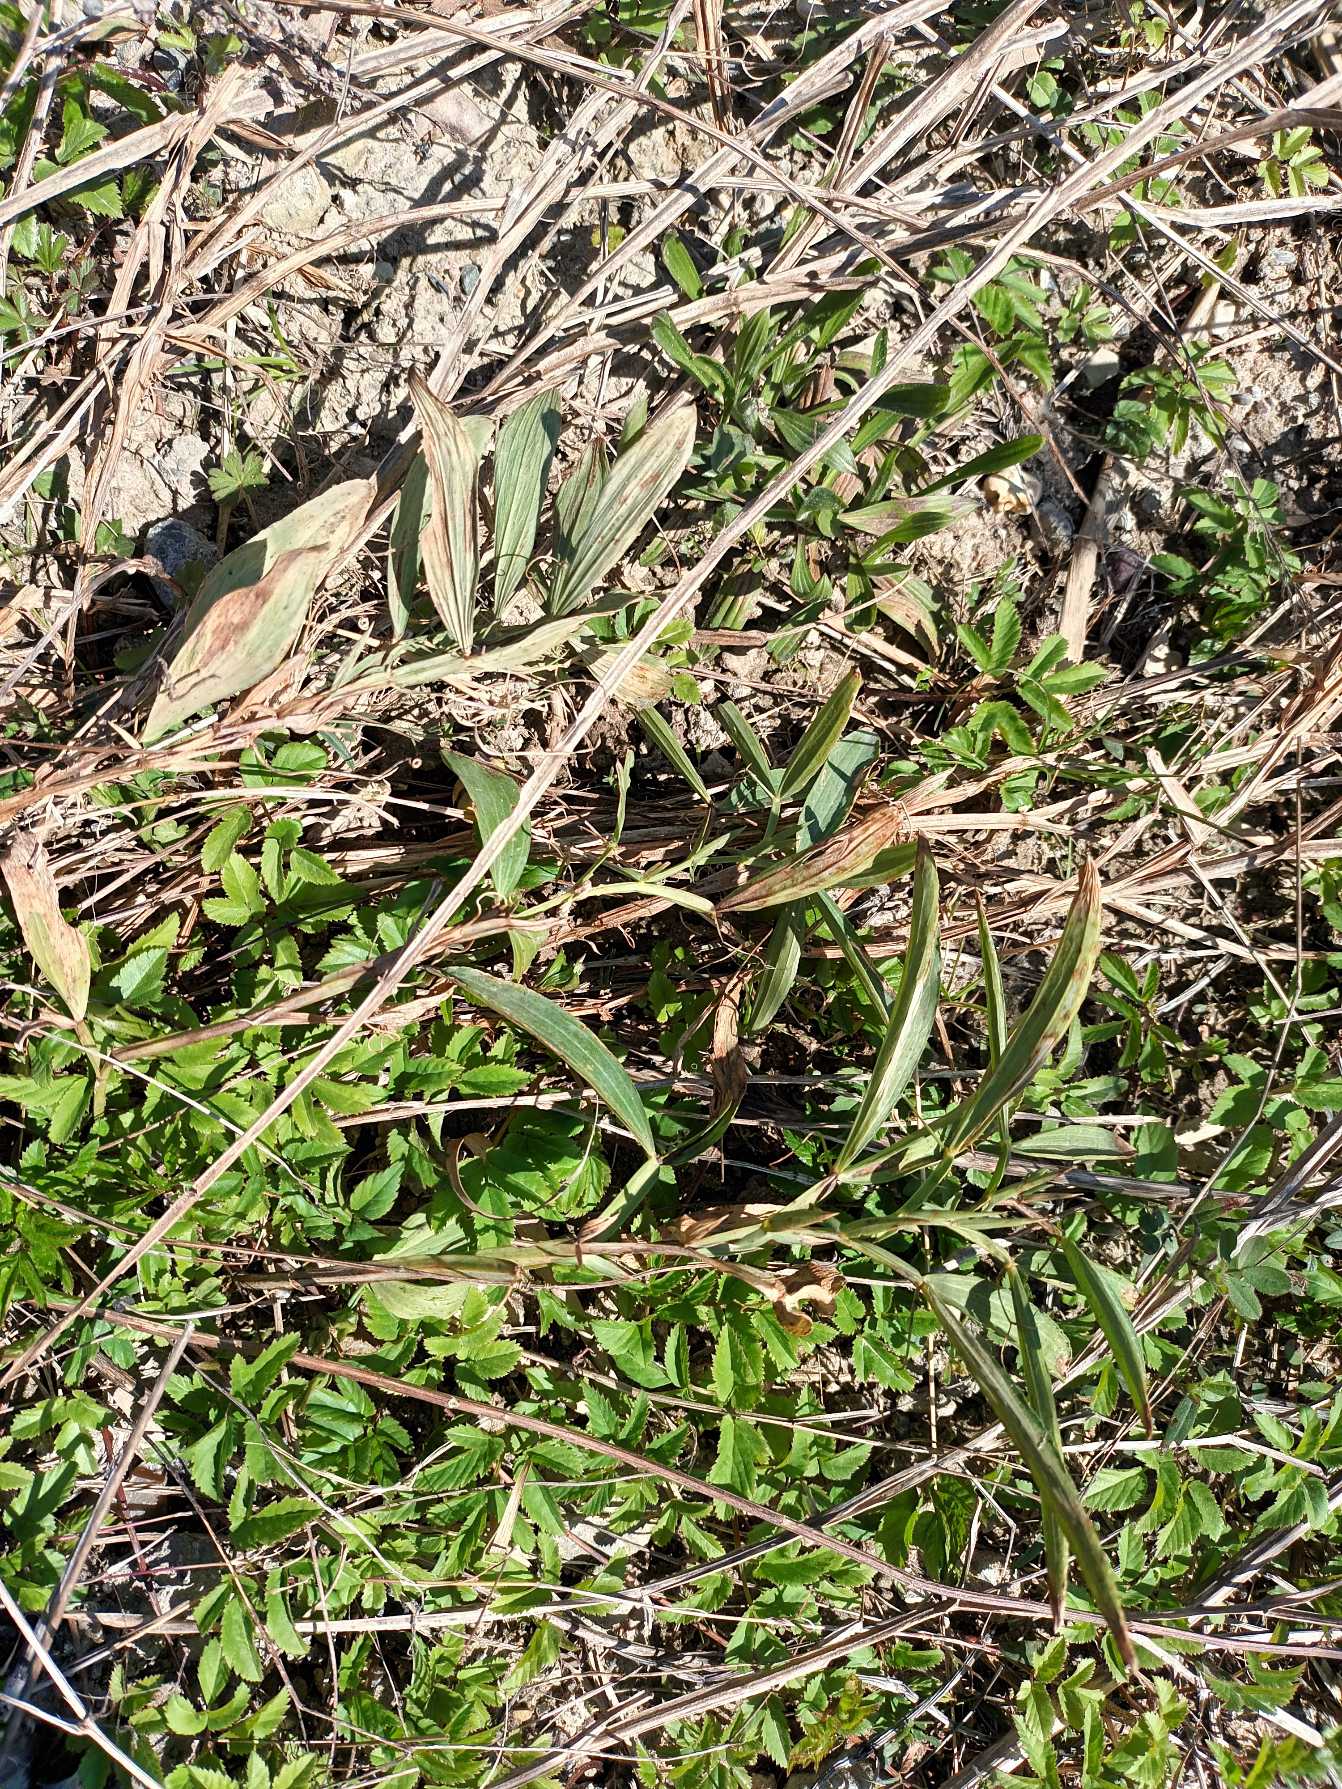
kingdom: Plantae
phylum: Tracheophyta
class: Magnoliopsida
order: Fabales
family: Fabaceae
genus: Lathyrus
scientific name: Lathyrus latifolius
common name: Flerårig ærteblomst
